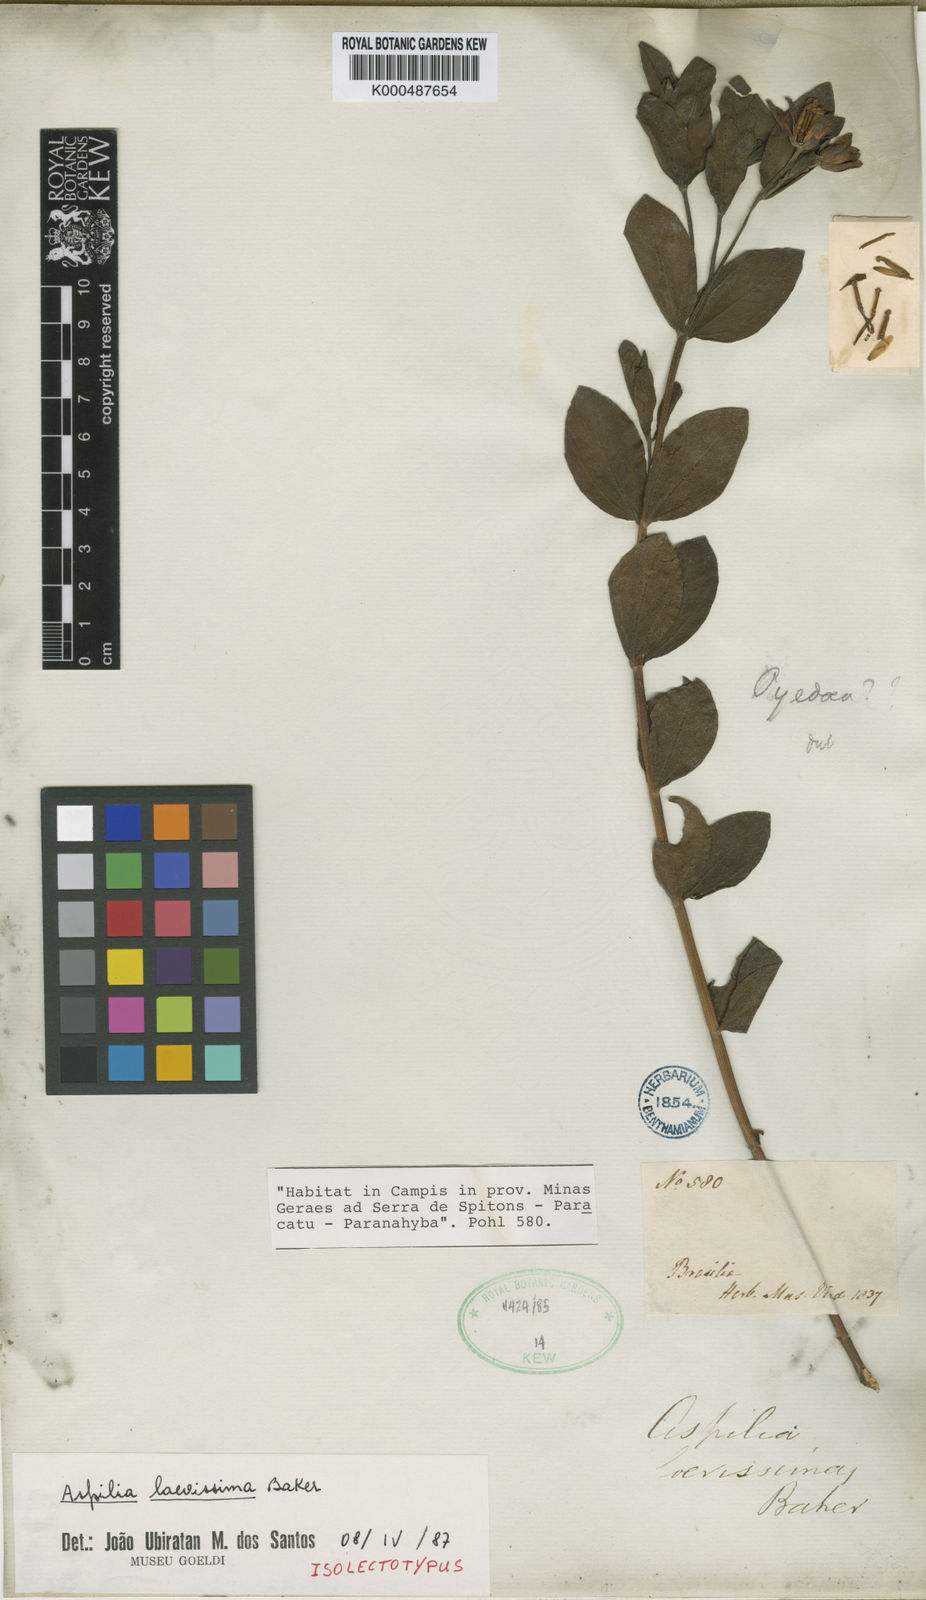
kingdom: Plantae
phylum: Tracheophyta
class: Magnoliopsida
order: Asterales
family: Asteraceae
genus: Wedelia
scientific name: Wedelia laevissima
